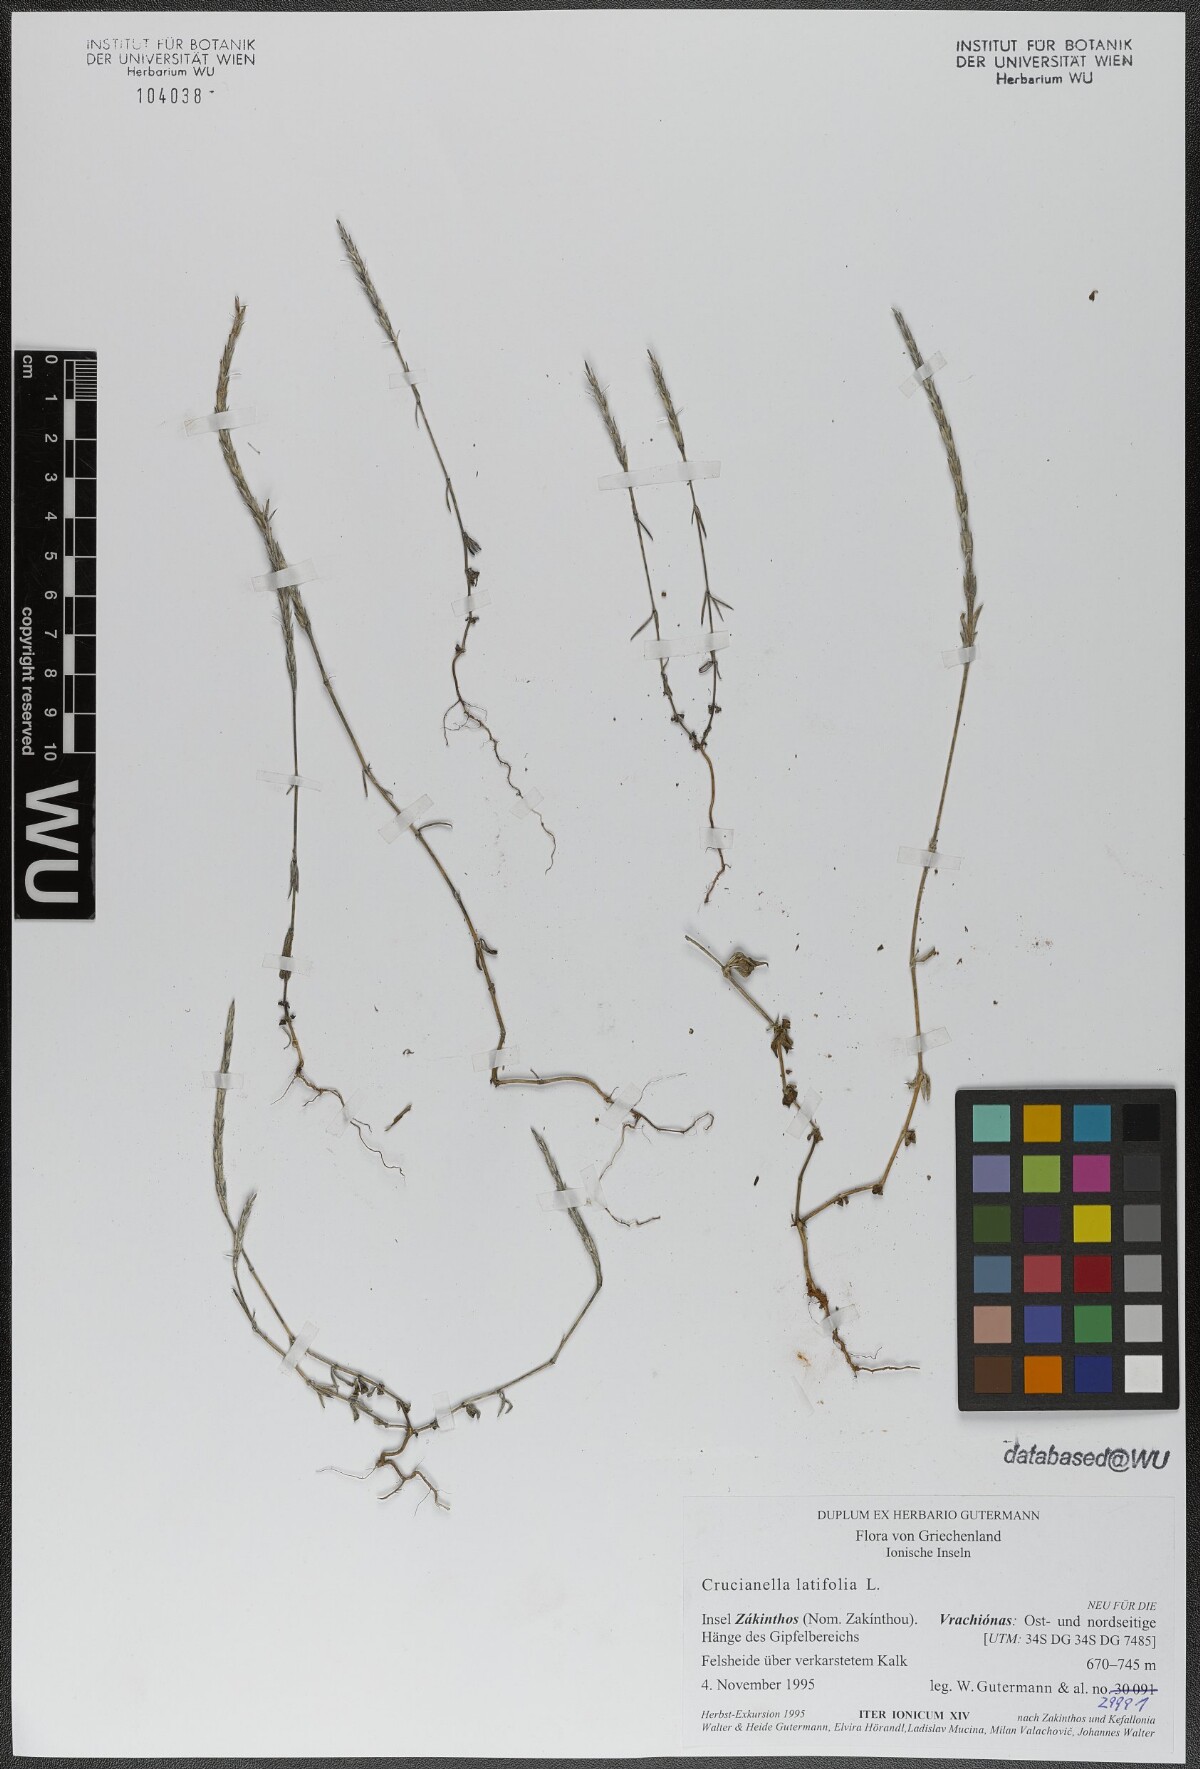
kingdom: Plantae
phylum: Tracheophyta
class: Magnoliopsida
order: Gentianales
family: Rubiaceae
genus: Crucianella
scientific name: Crucianella latifolia
